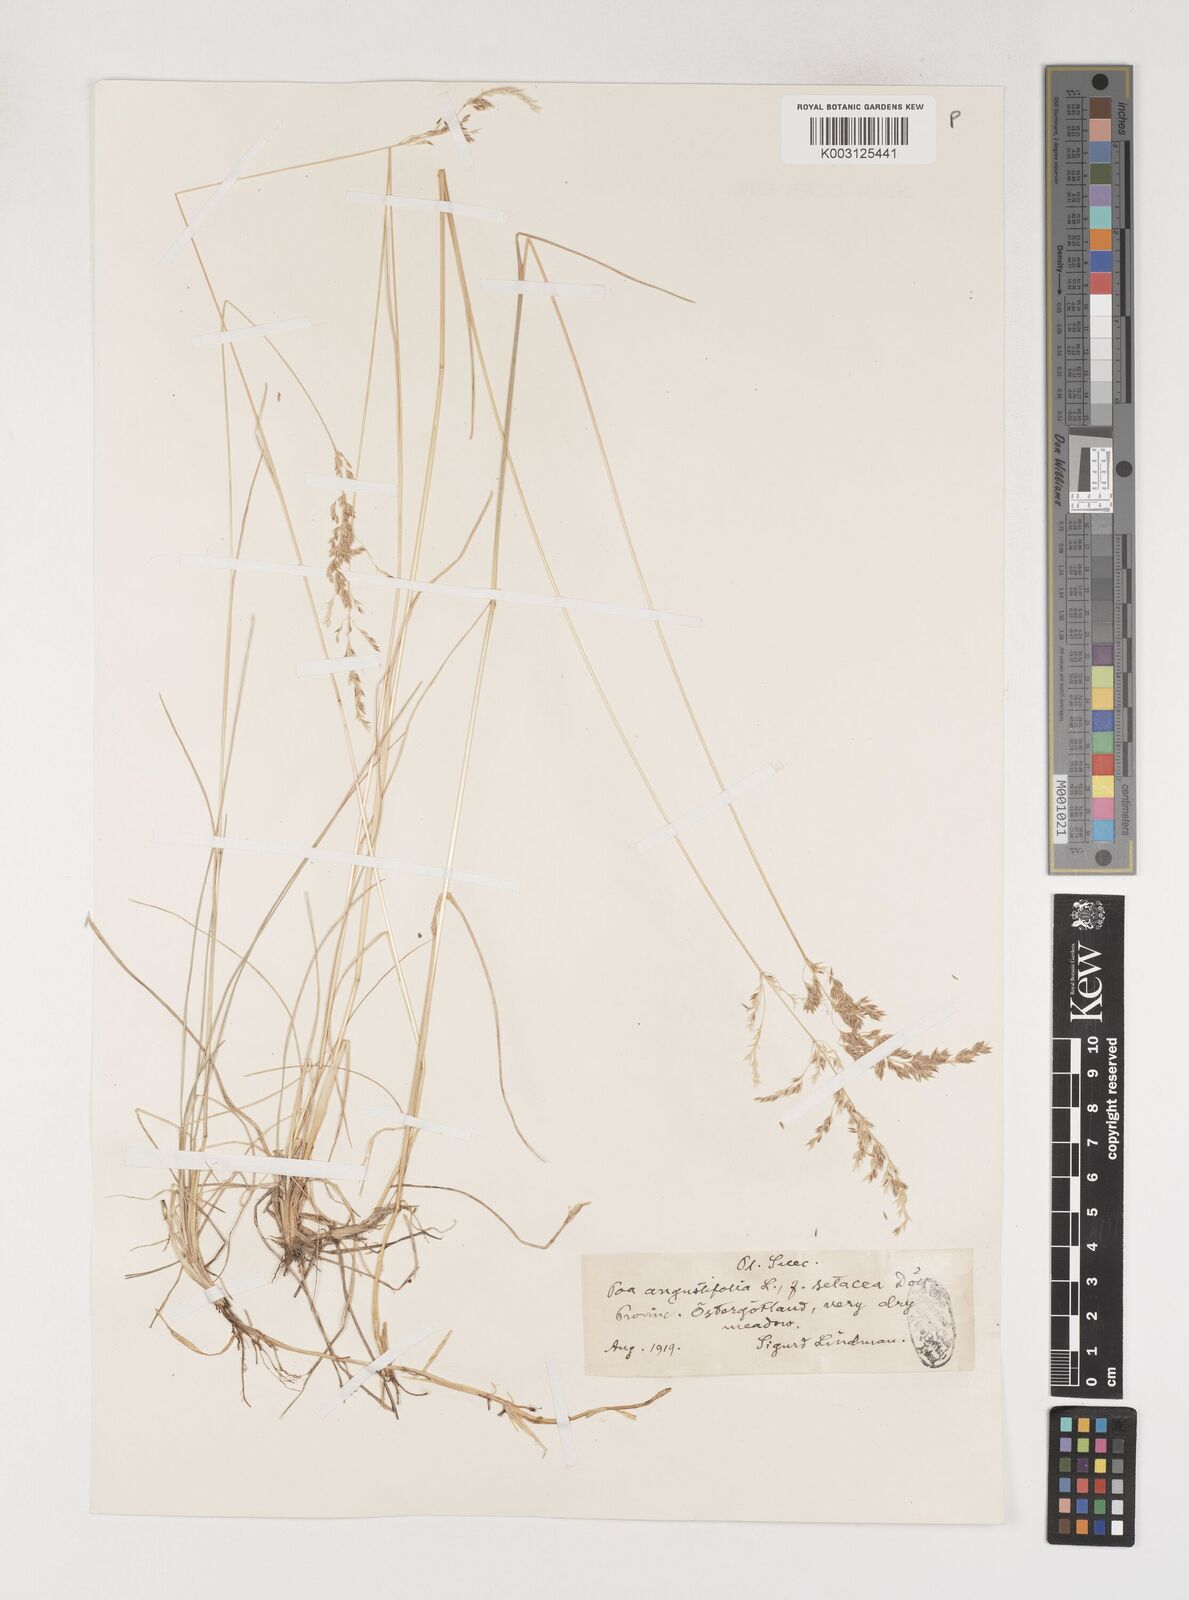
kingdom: Plantae
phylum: Tracheophyta
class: Liliopsida
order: Poales
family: Poaceae
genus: Poa
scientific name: Poa angustifolia
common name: Narrow-leaved meadow-grass
